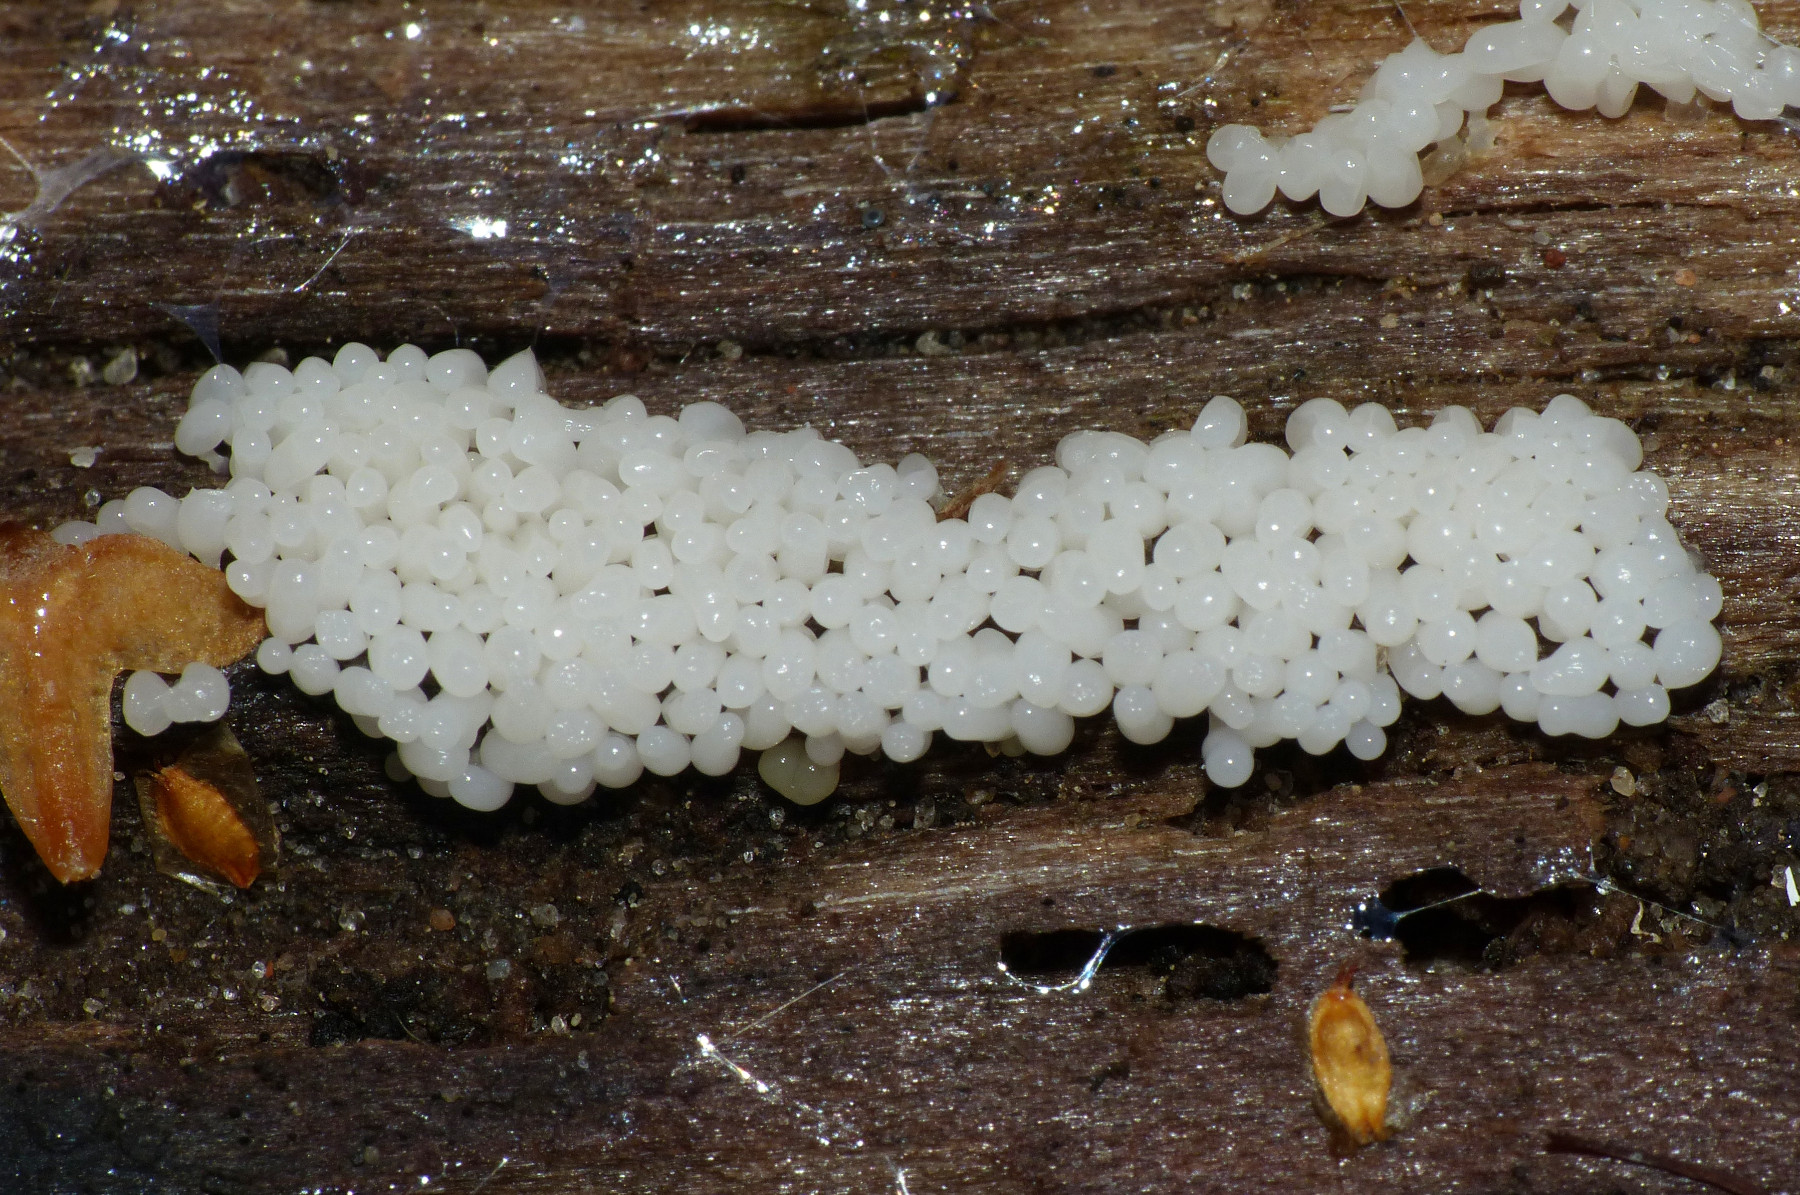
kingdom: Protozoa
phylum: Mycetozoa
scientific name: Mycetozoa
